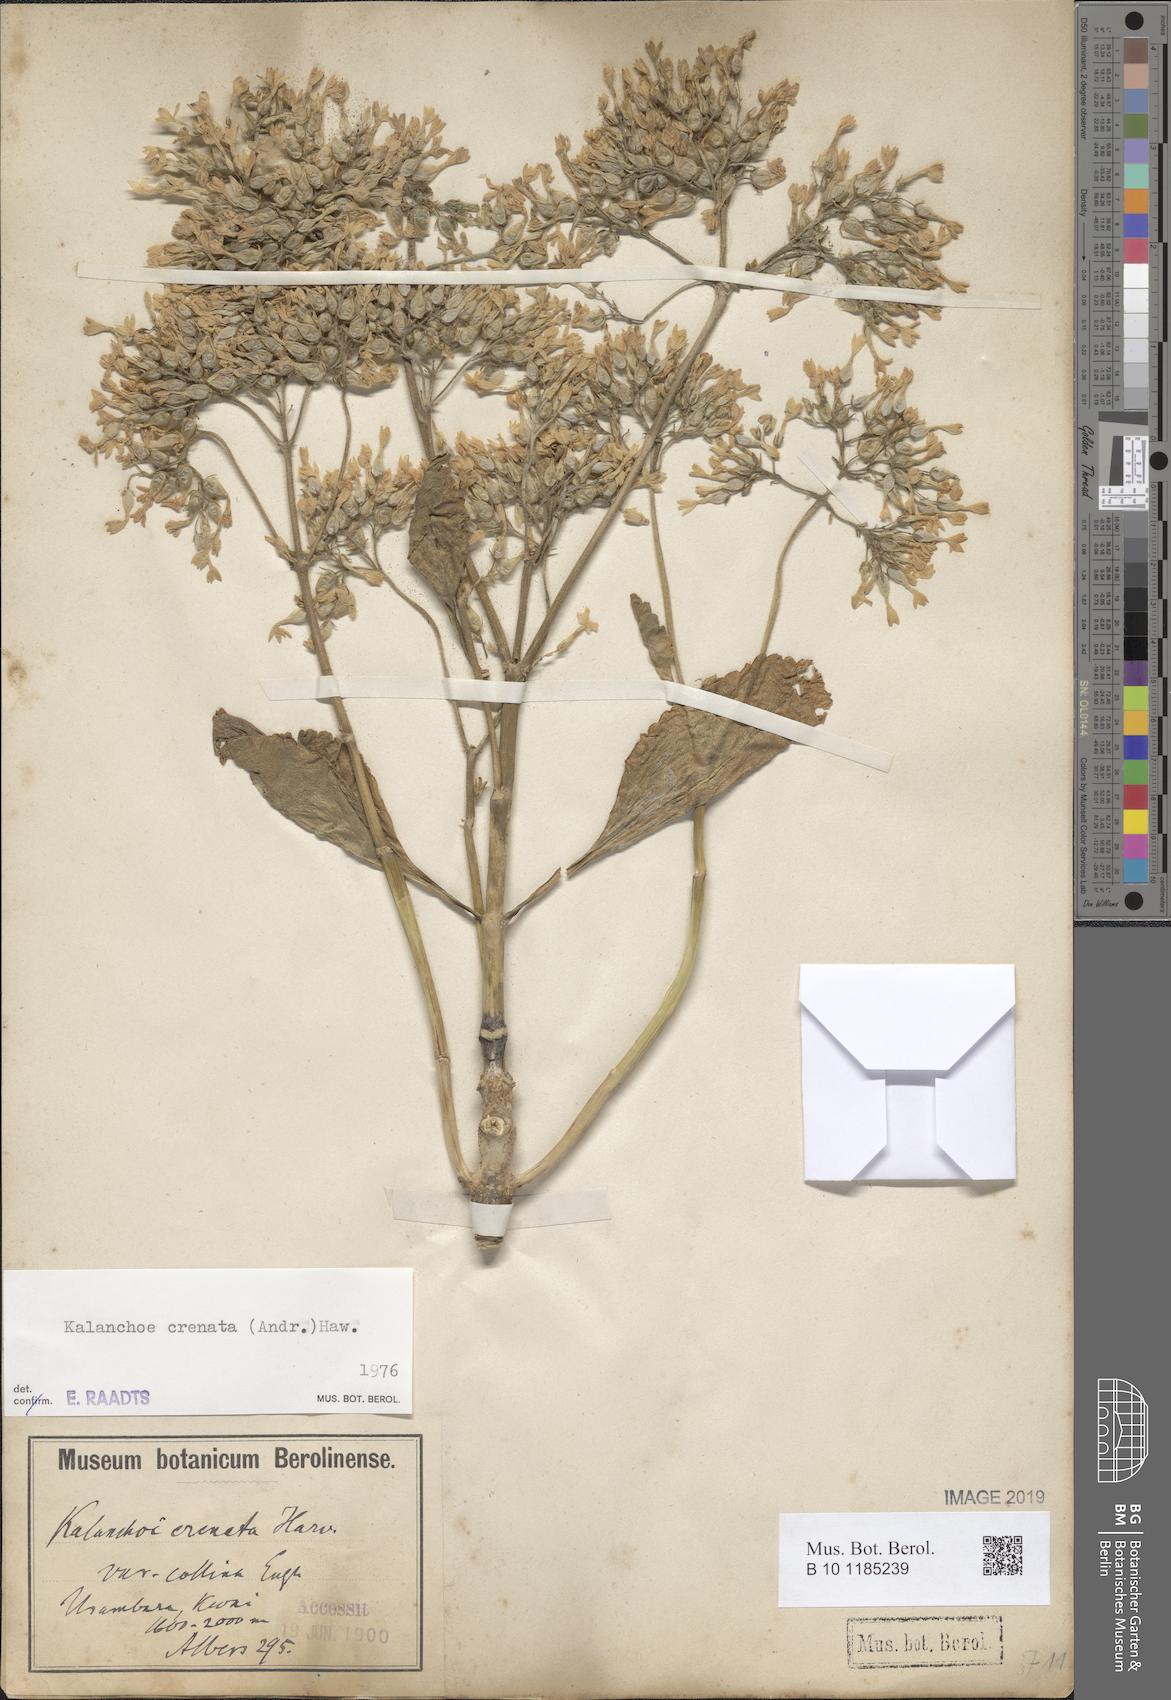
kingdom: Plantae
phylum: Tracheophyta
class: Magnoliopsida
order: Saxifragales
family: Crassulaceae
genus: Kalanchoe
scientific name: Kalanchoe crenata
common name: Neverdie
